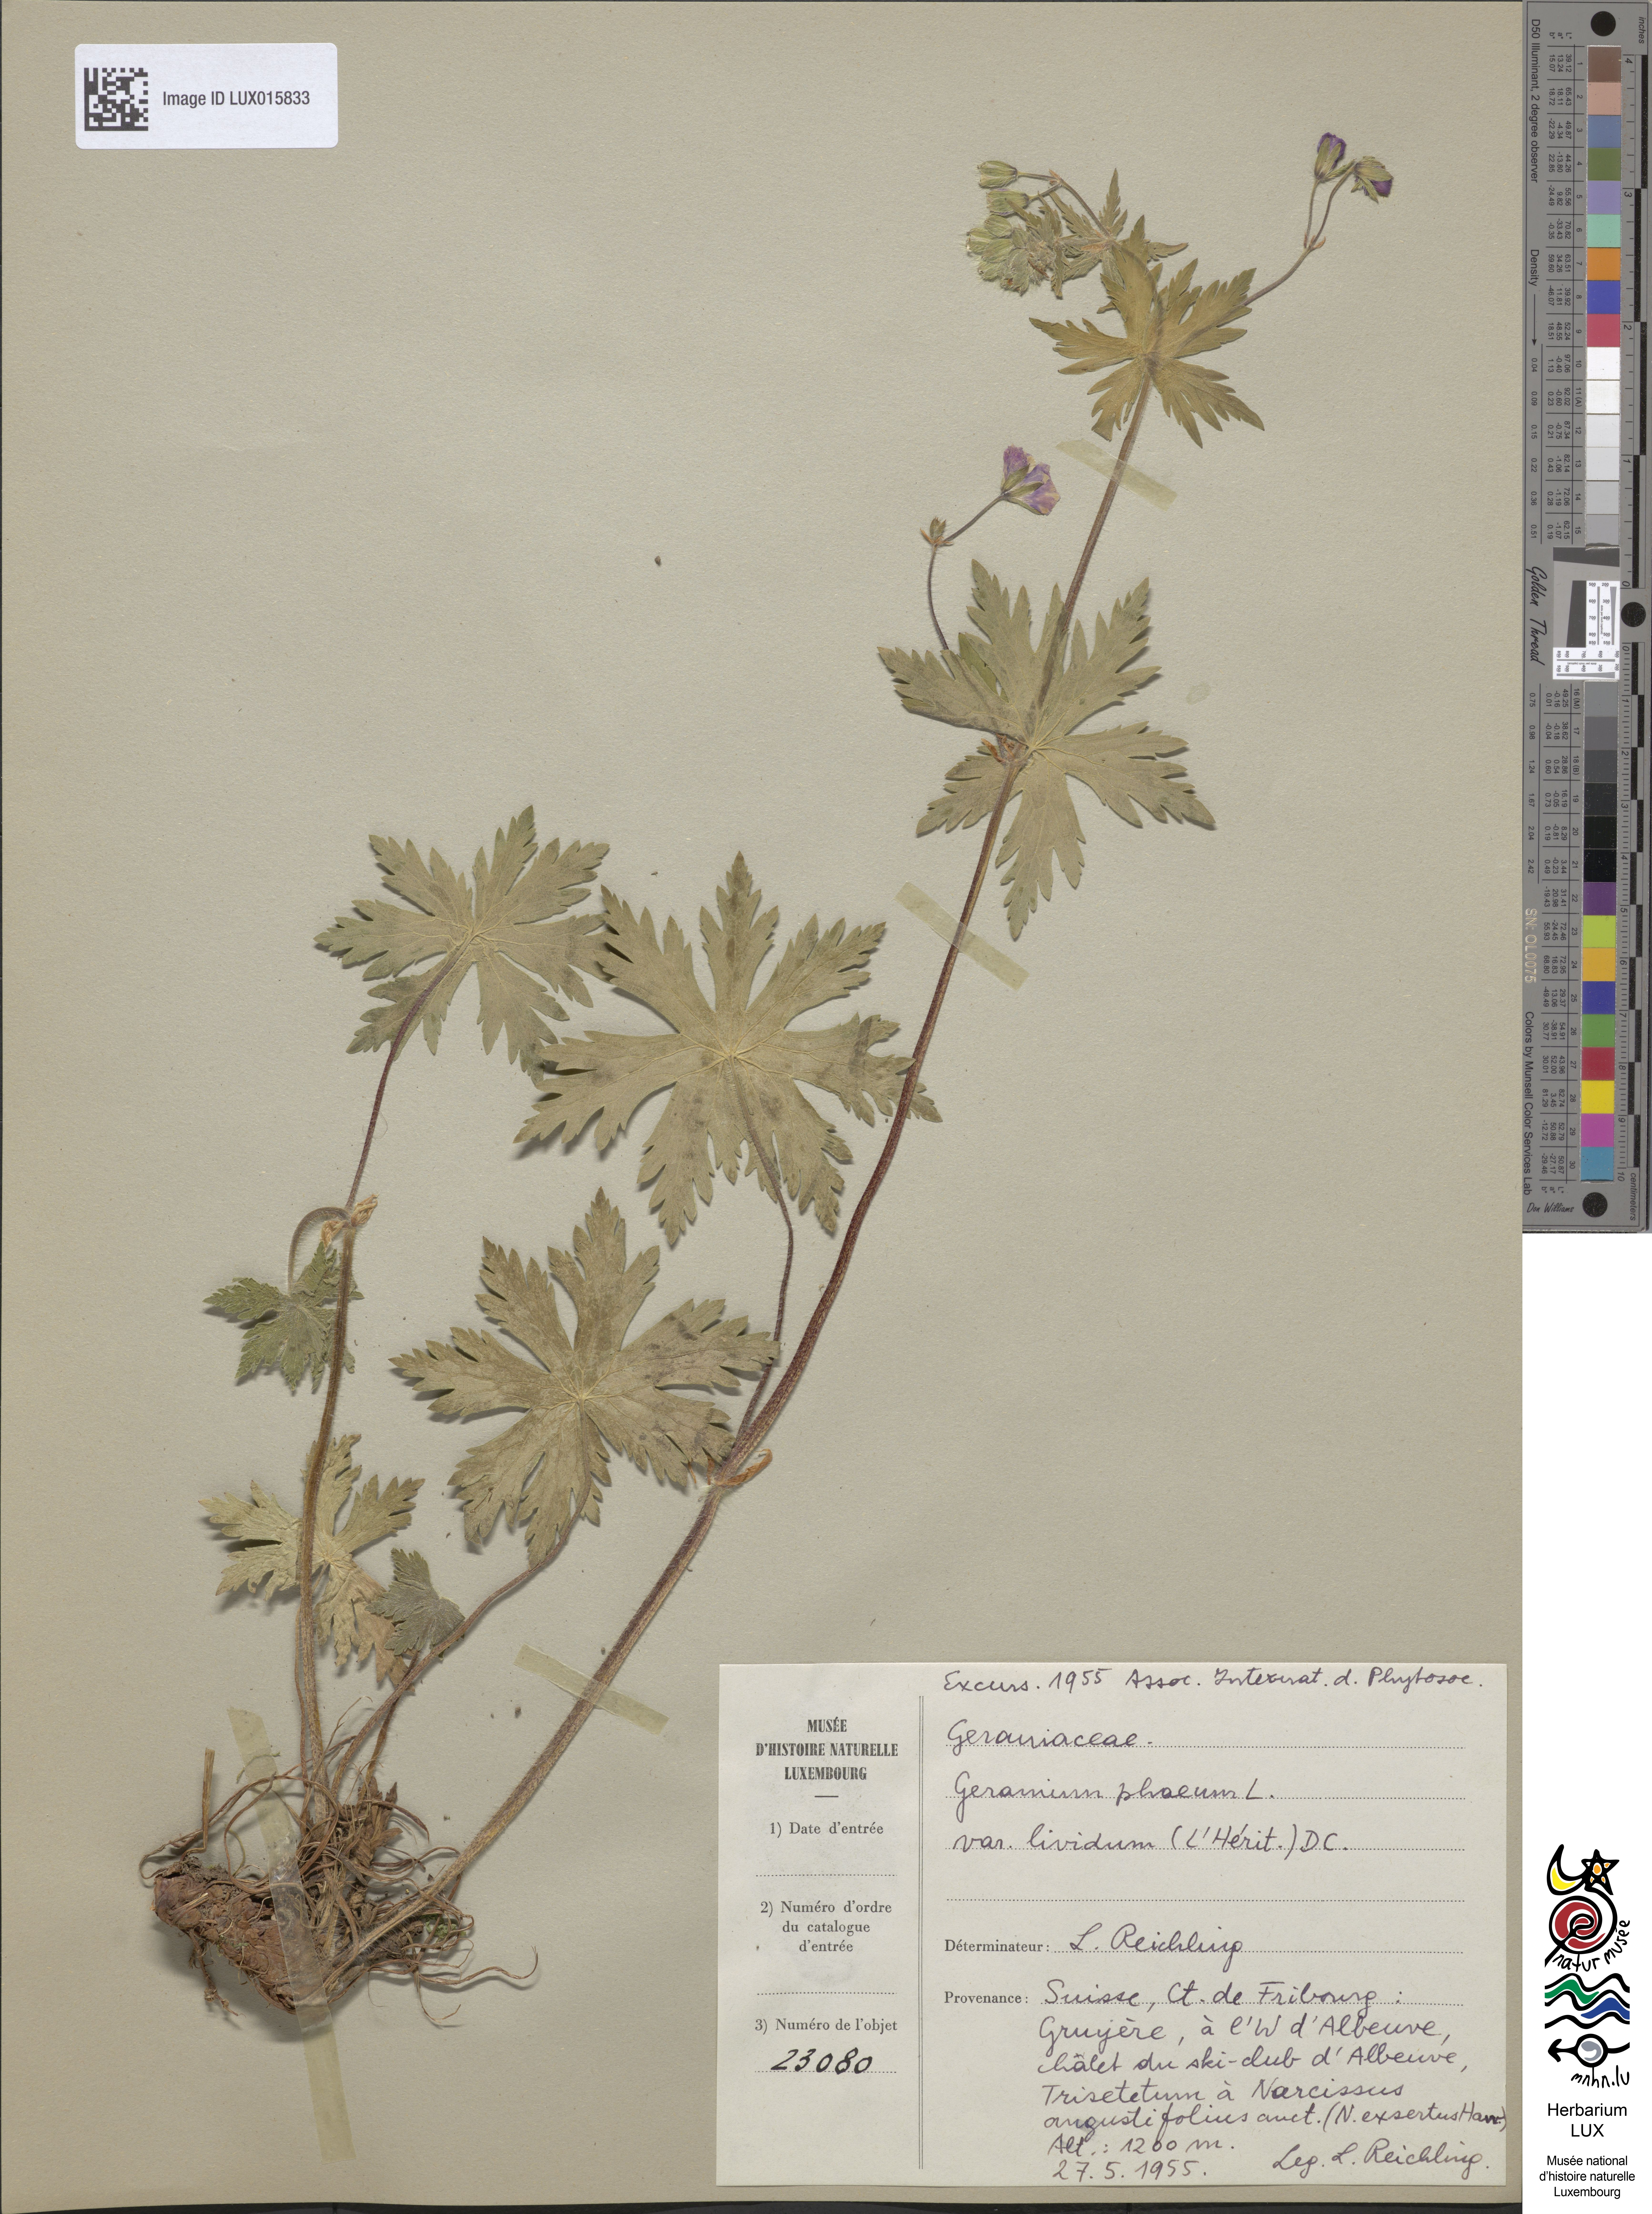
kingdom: Plantae
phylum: Tracheophyta
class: Magnoliopsida
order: Geraniales
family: Geraniaceae
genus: Geranium
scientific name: Geranium phaeum
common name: Dusky crane's-bill
